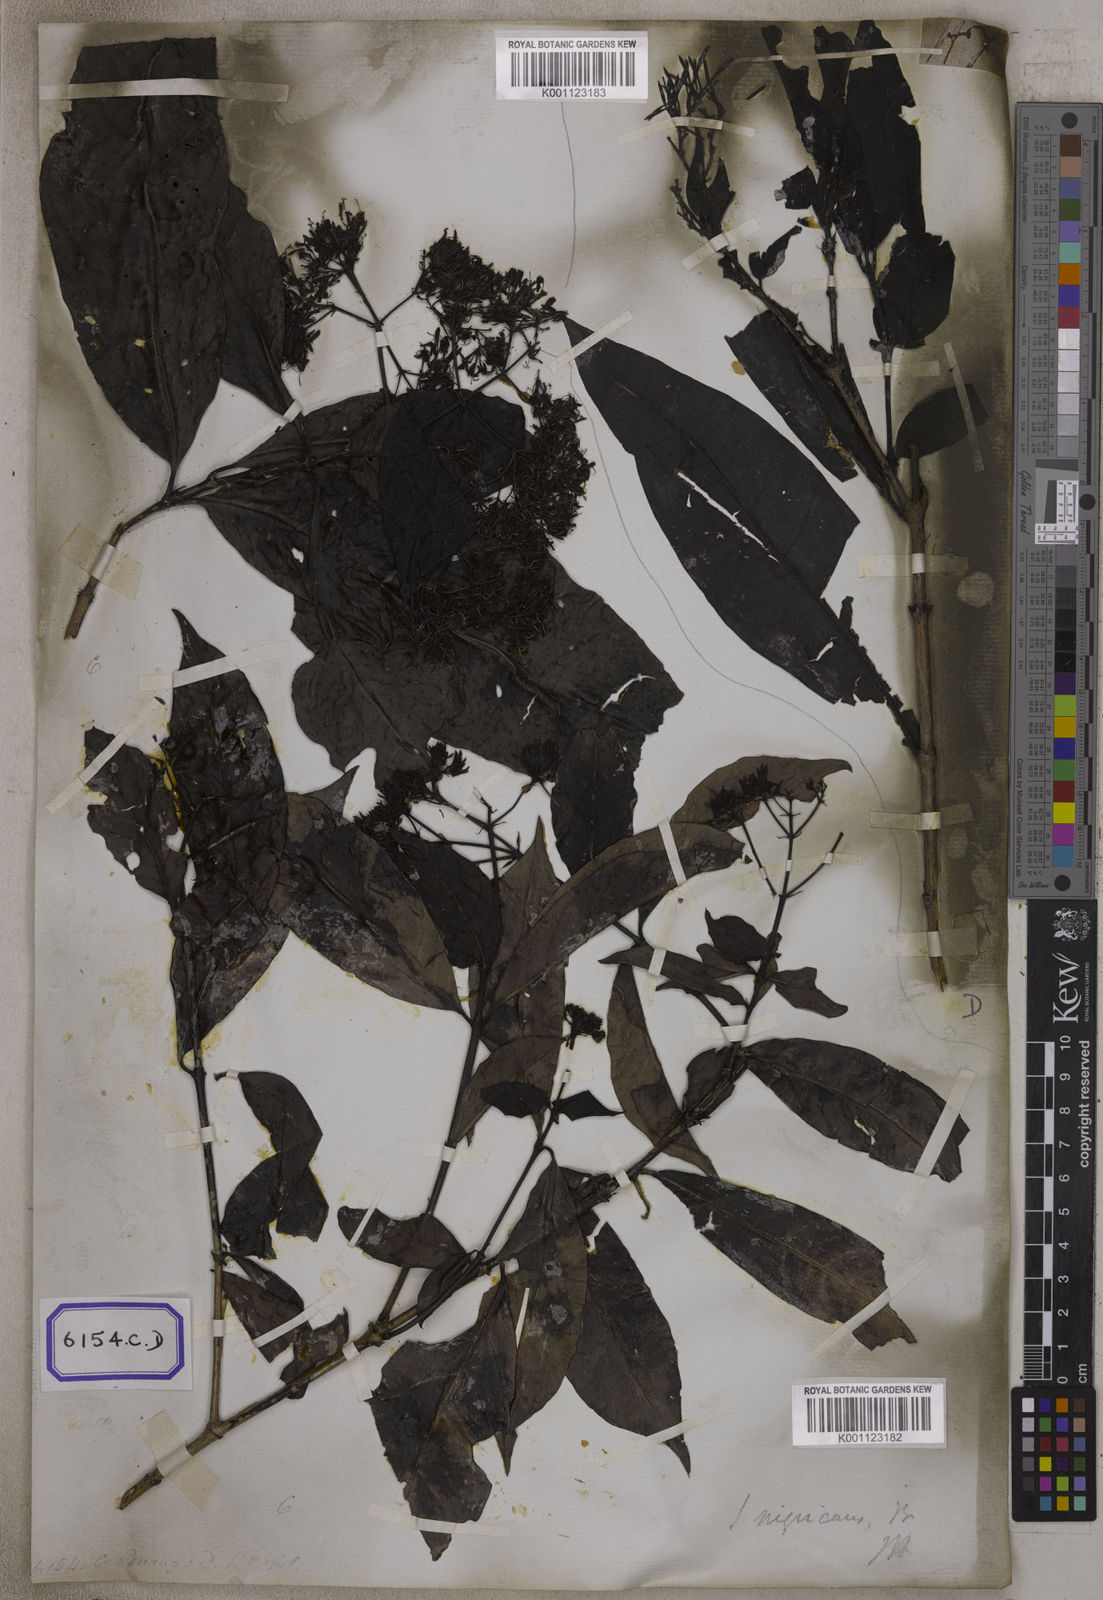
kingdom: Plantae
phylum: Tracheophyta
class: Magnoliopsida
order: Gentianales
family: Rubiaceae
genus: Ixora
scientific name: Ixora
